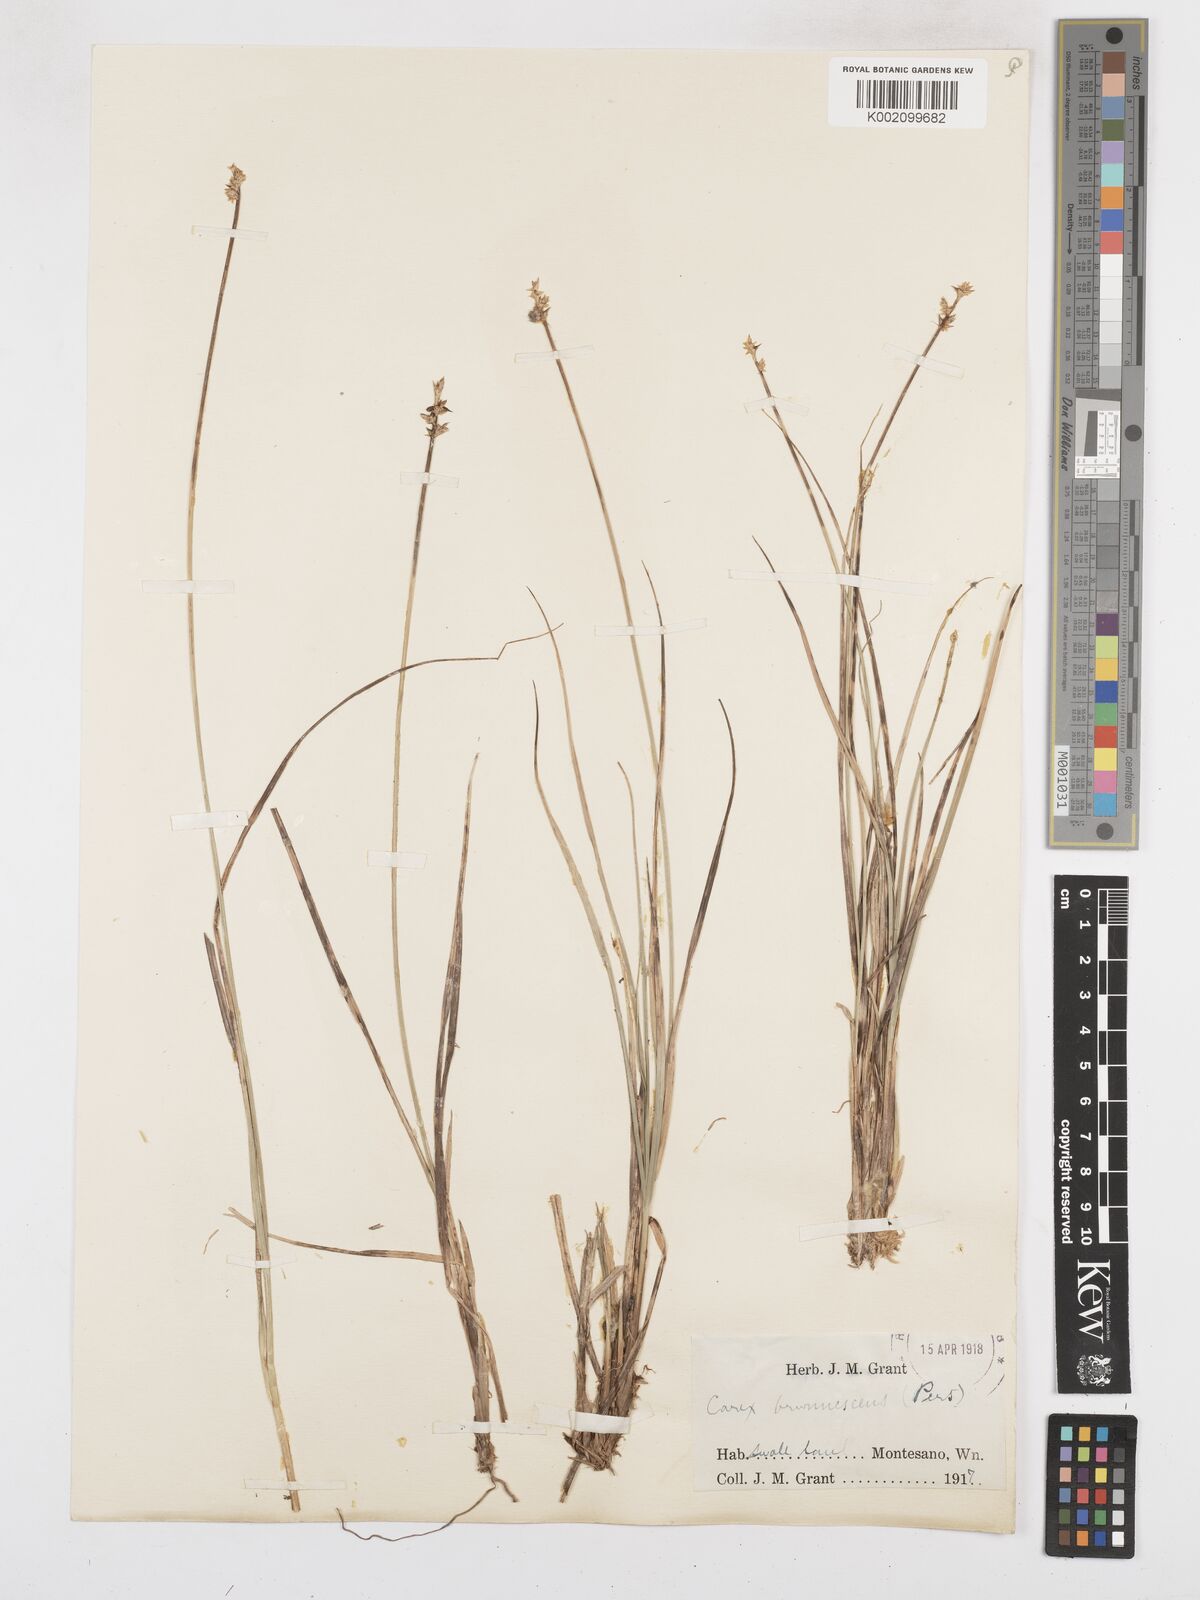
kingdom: Plantae
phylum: Tracheophyta
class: Liliopsida
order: Poales
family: Cyperaceae
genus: Carex
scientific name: Carex brunnescens
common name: Brown sedge
